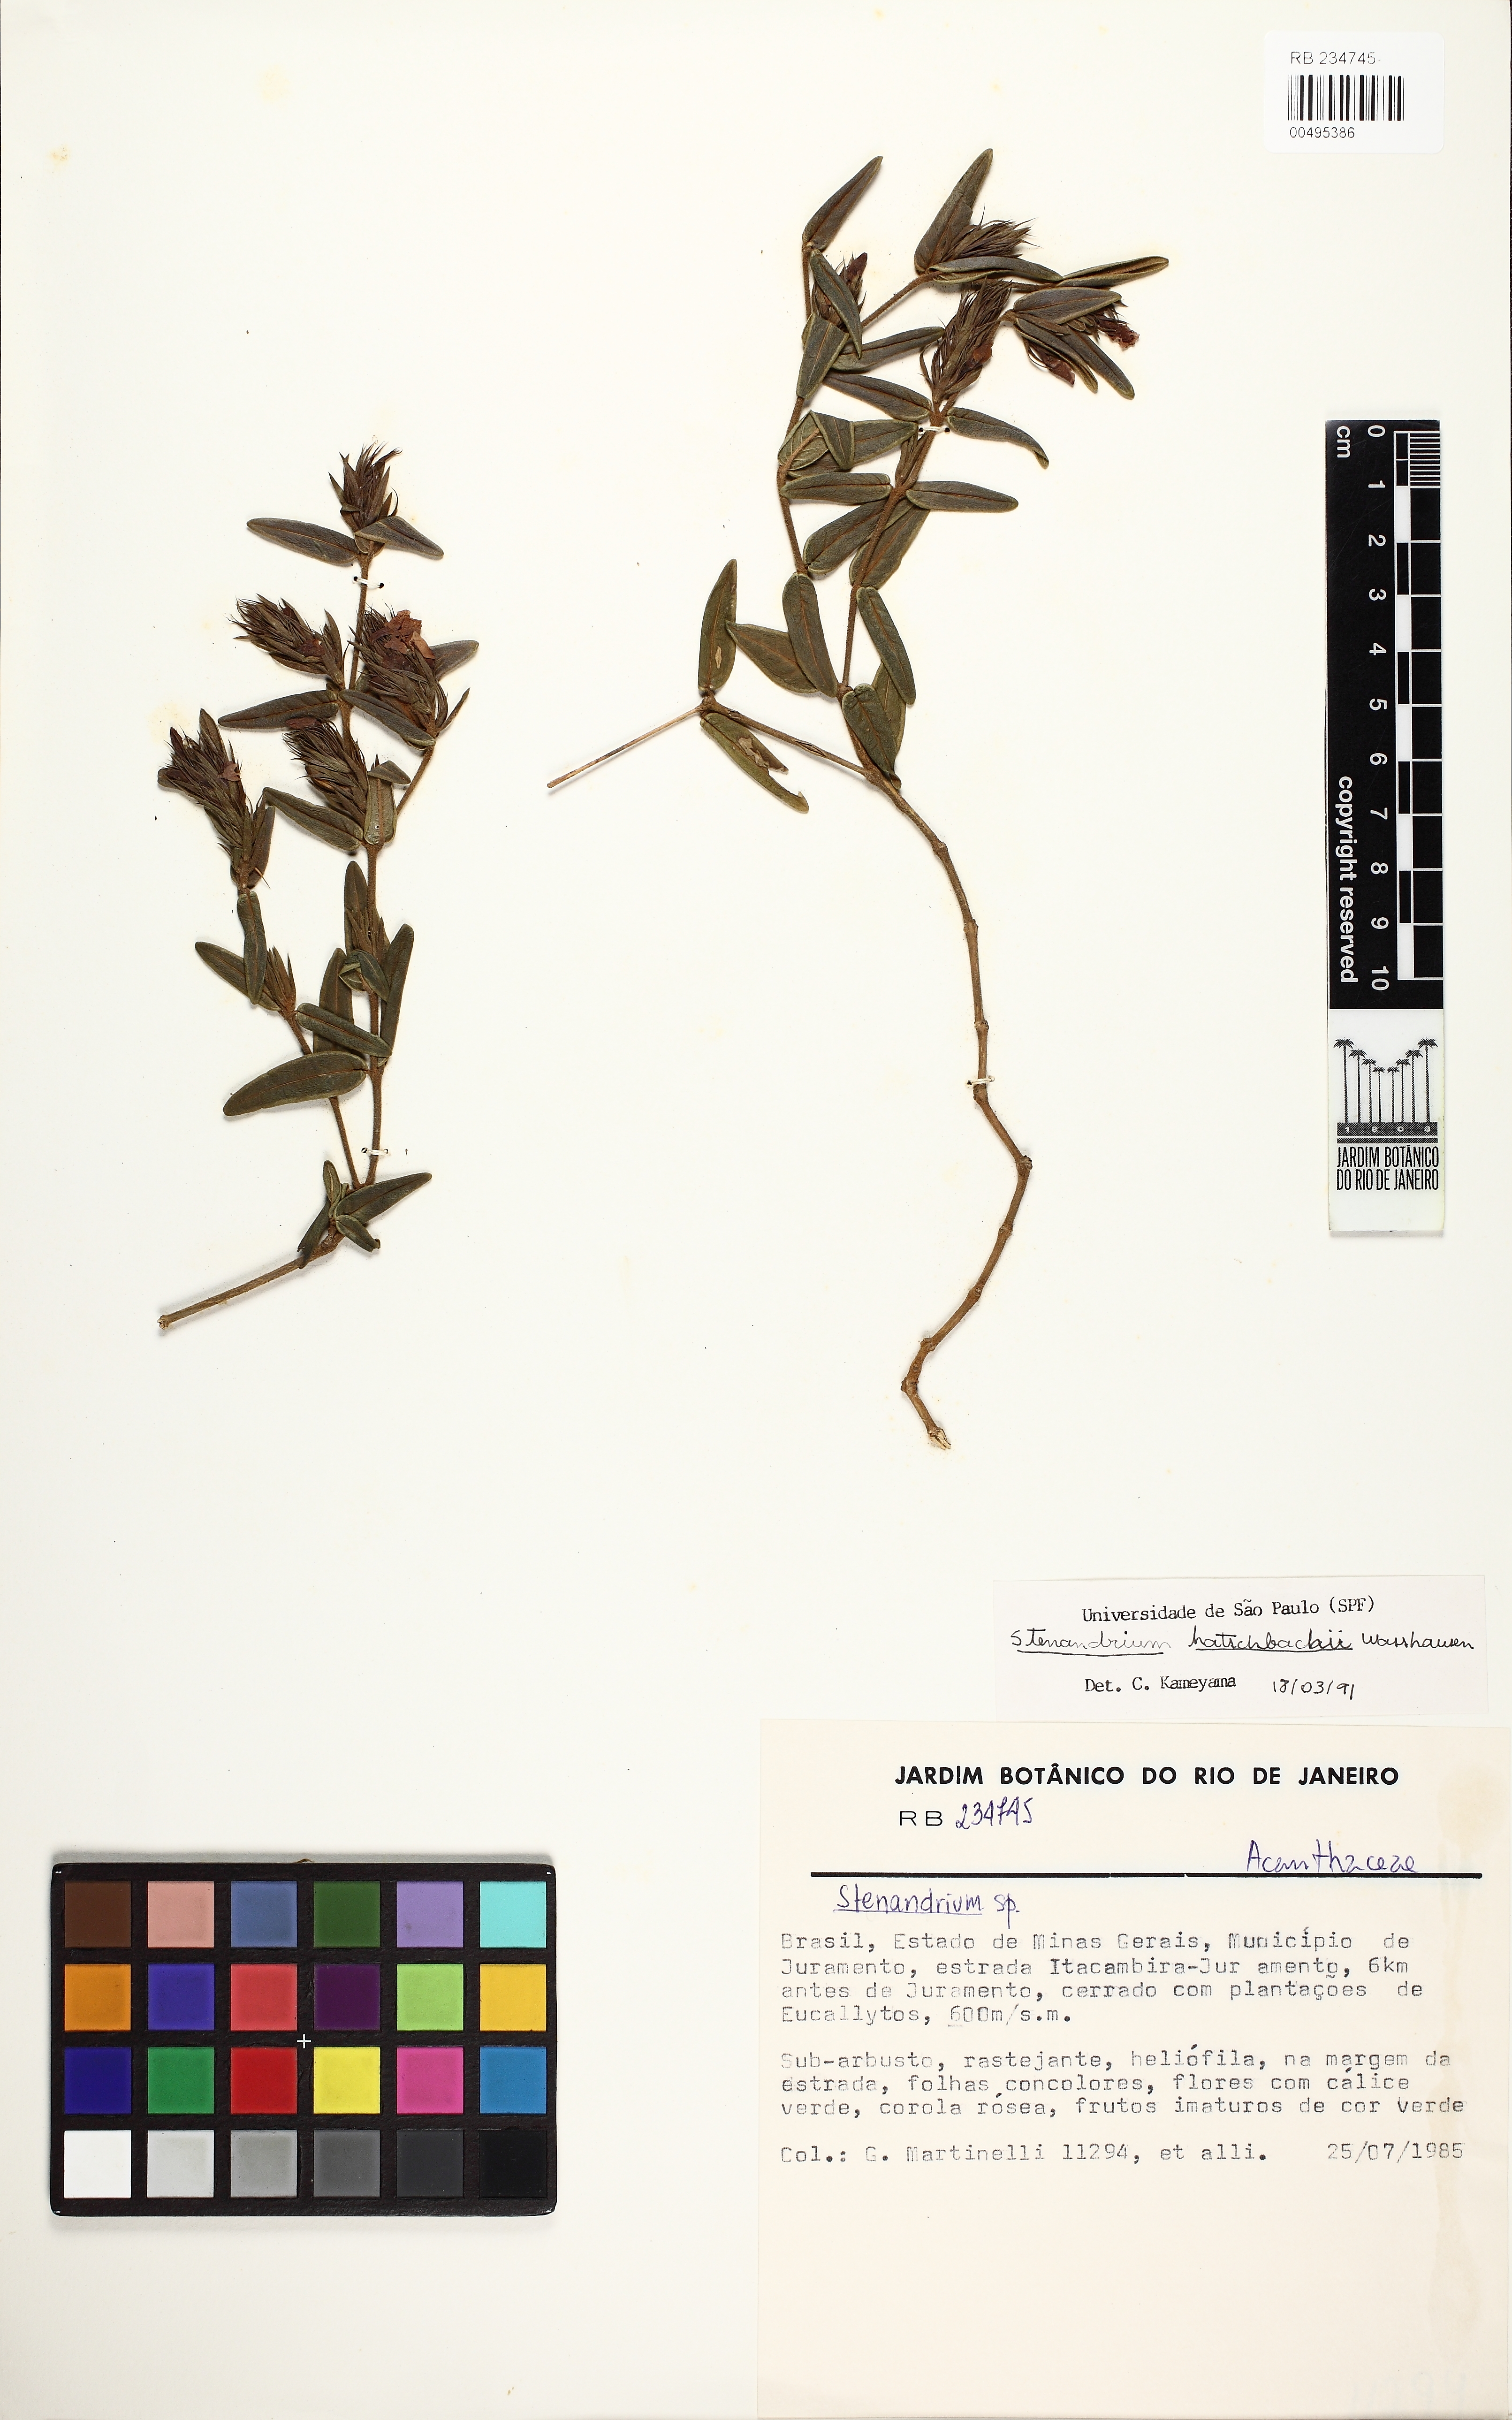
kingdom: Plantae
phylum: Tracheophyta
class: Magnoliopsida
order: Lamiales
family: Acanthaceae
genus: Stenandrium
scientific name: Stenandrium hatschbachii
